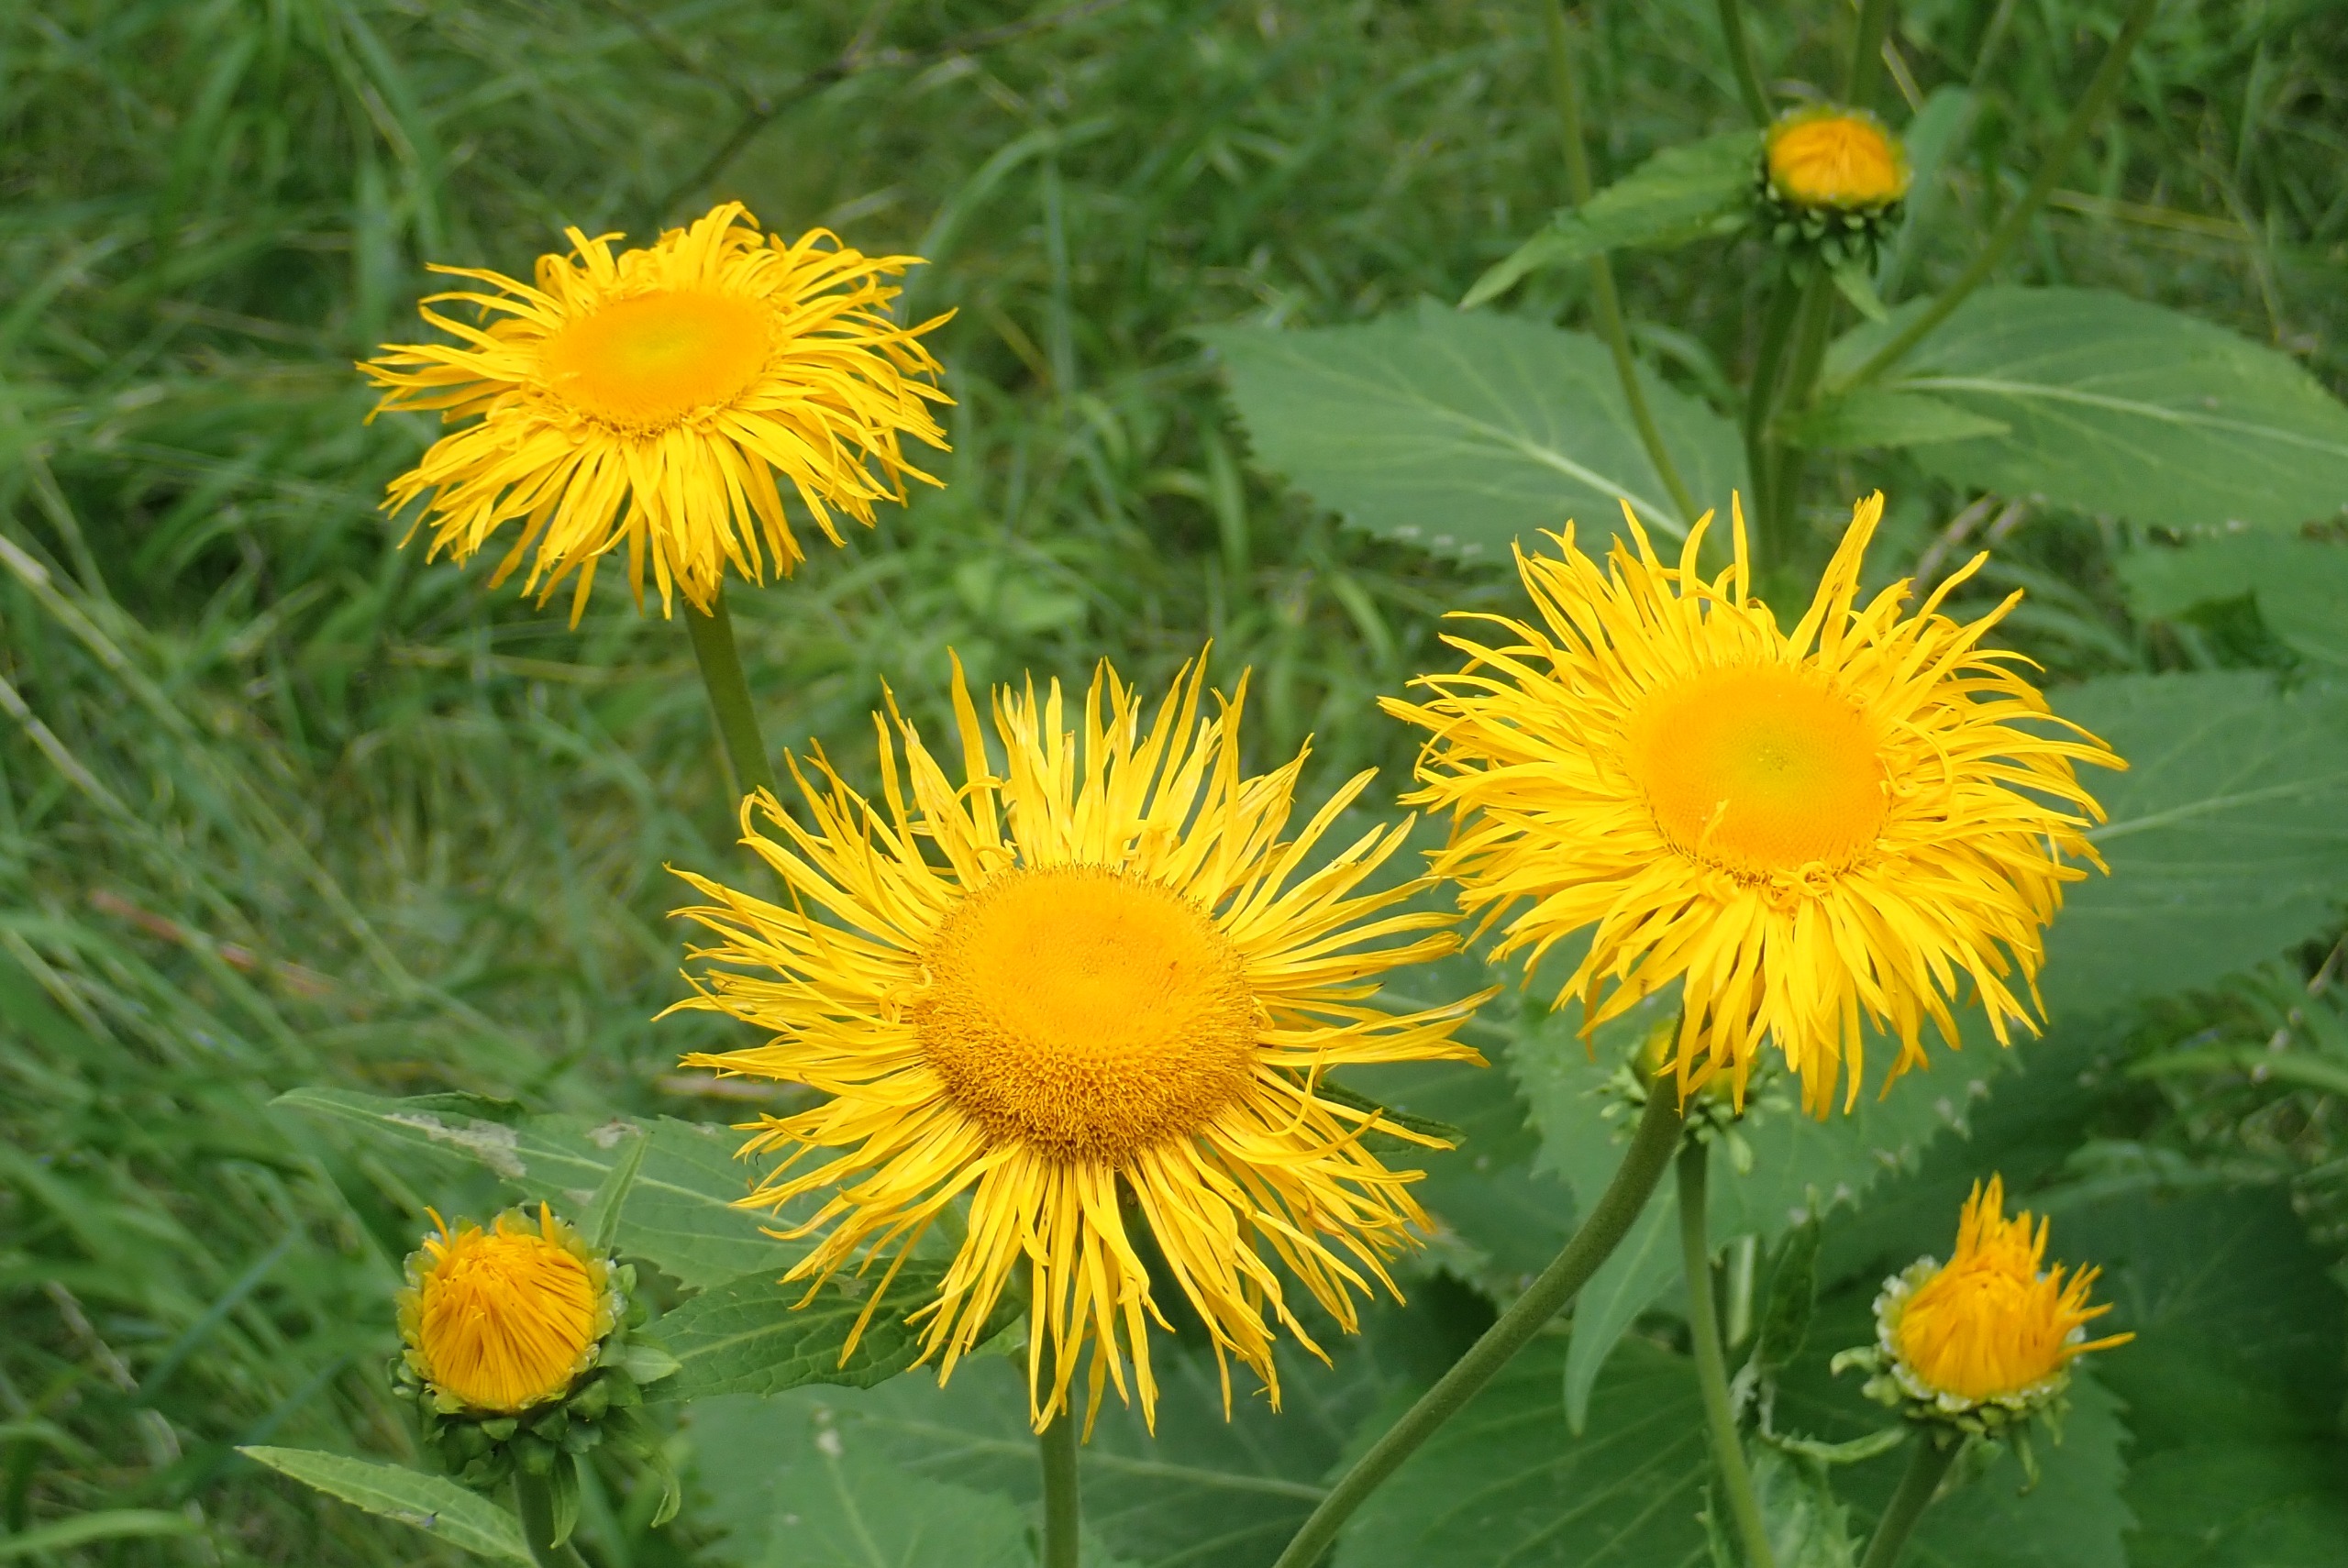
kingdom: Plantae
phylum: Tracheophyta
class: Magnoliopsida
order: Asterales
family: Asteraceae
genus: Telekia
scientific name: Telekia speciosa
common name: Tusindstråle
